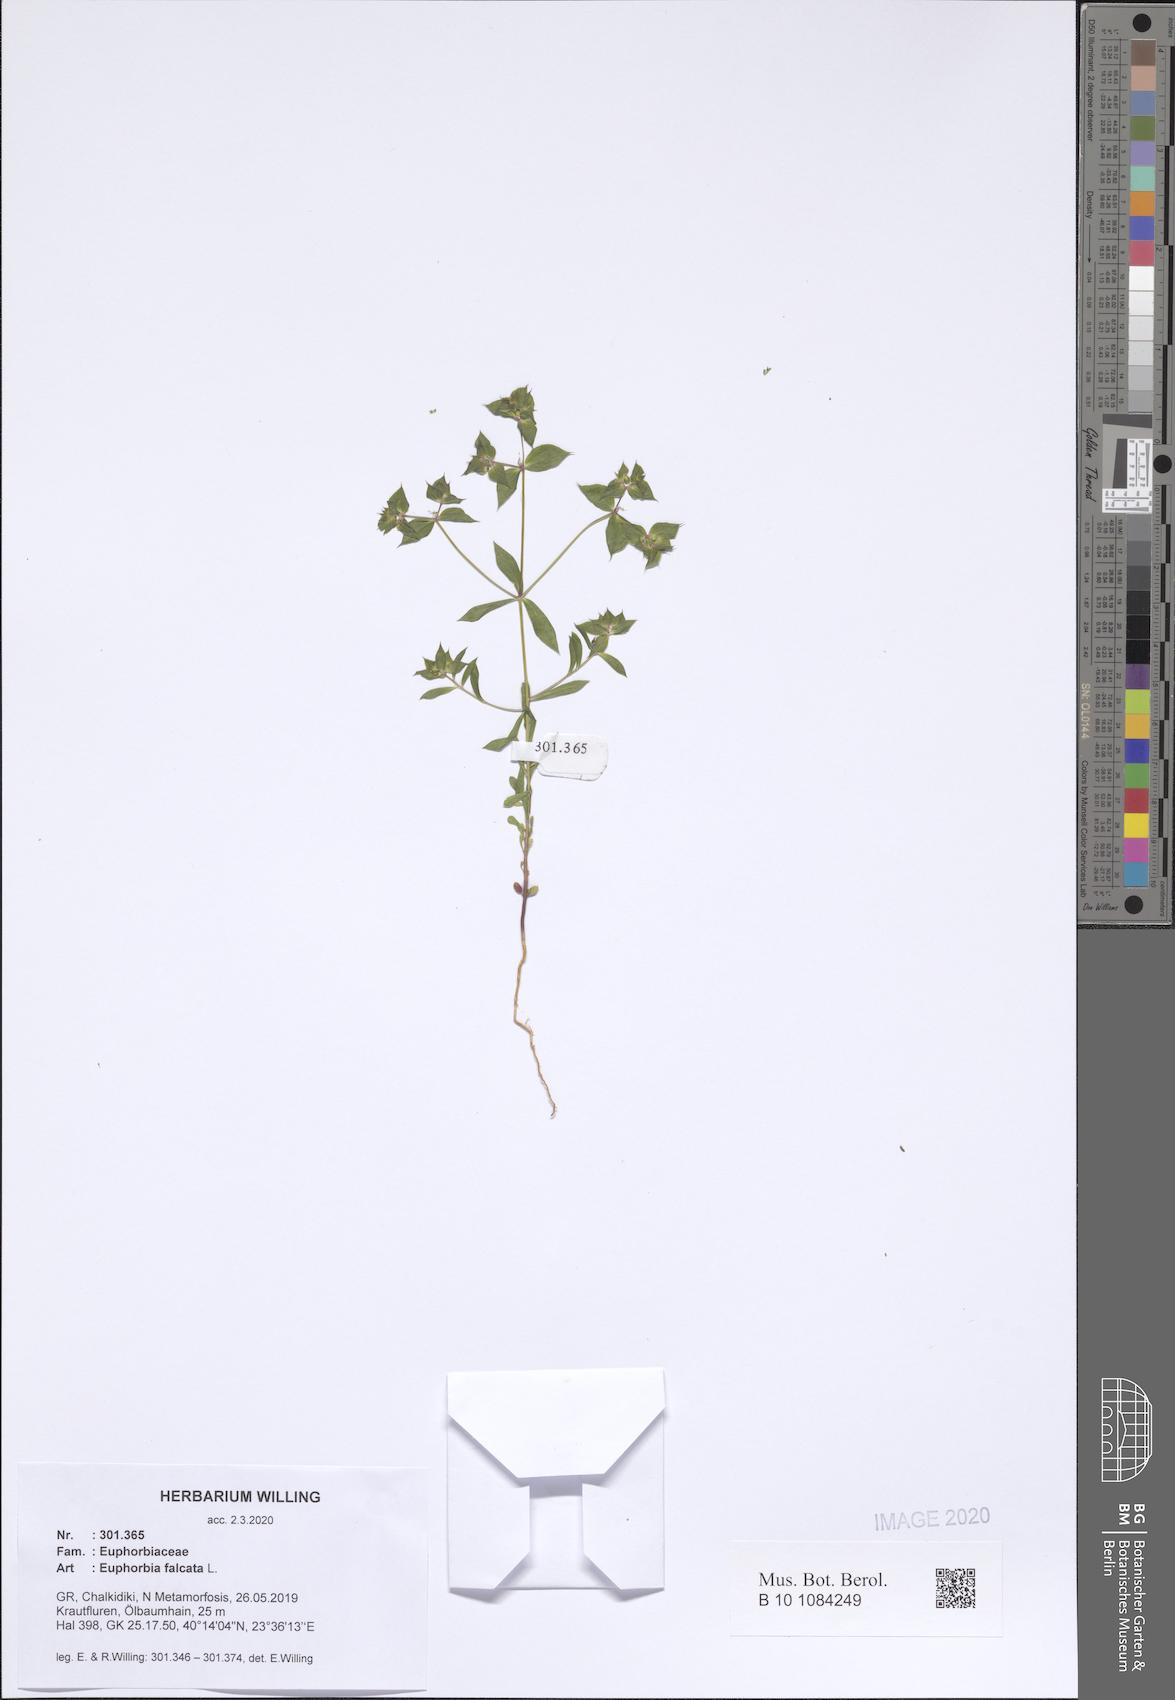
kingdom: Plantae
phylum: Tracheophyta
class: Magnoliopsida
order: Malpighiales
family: Euphorbiaceae
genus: Euphorbia
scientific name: Euphorbia falcata
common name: Sickle spurge
